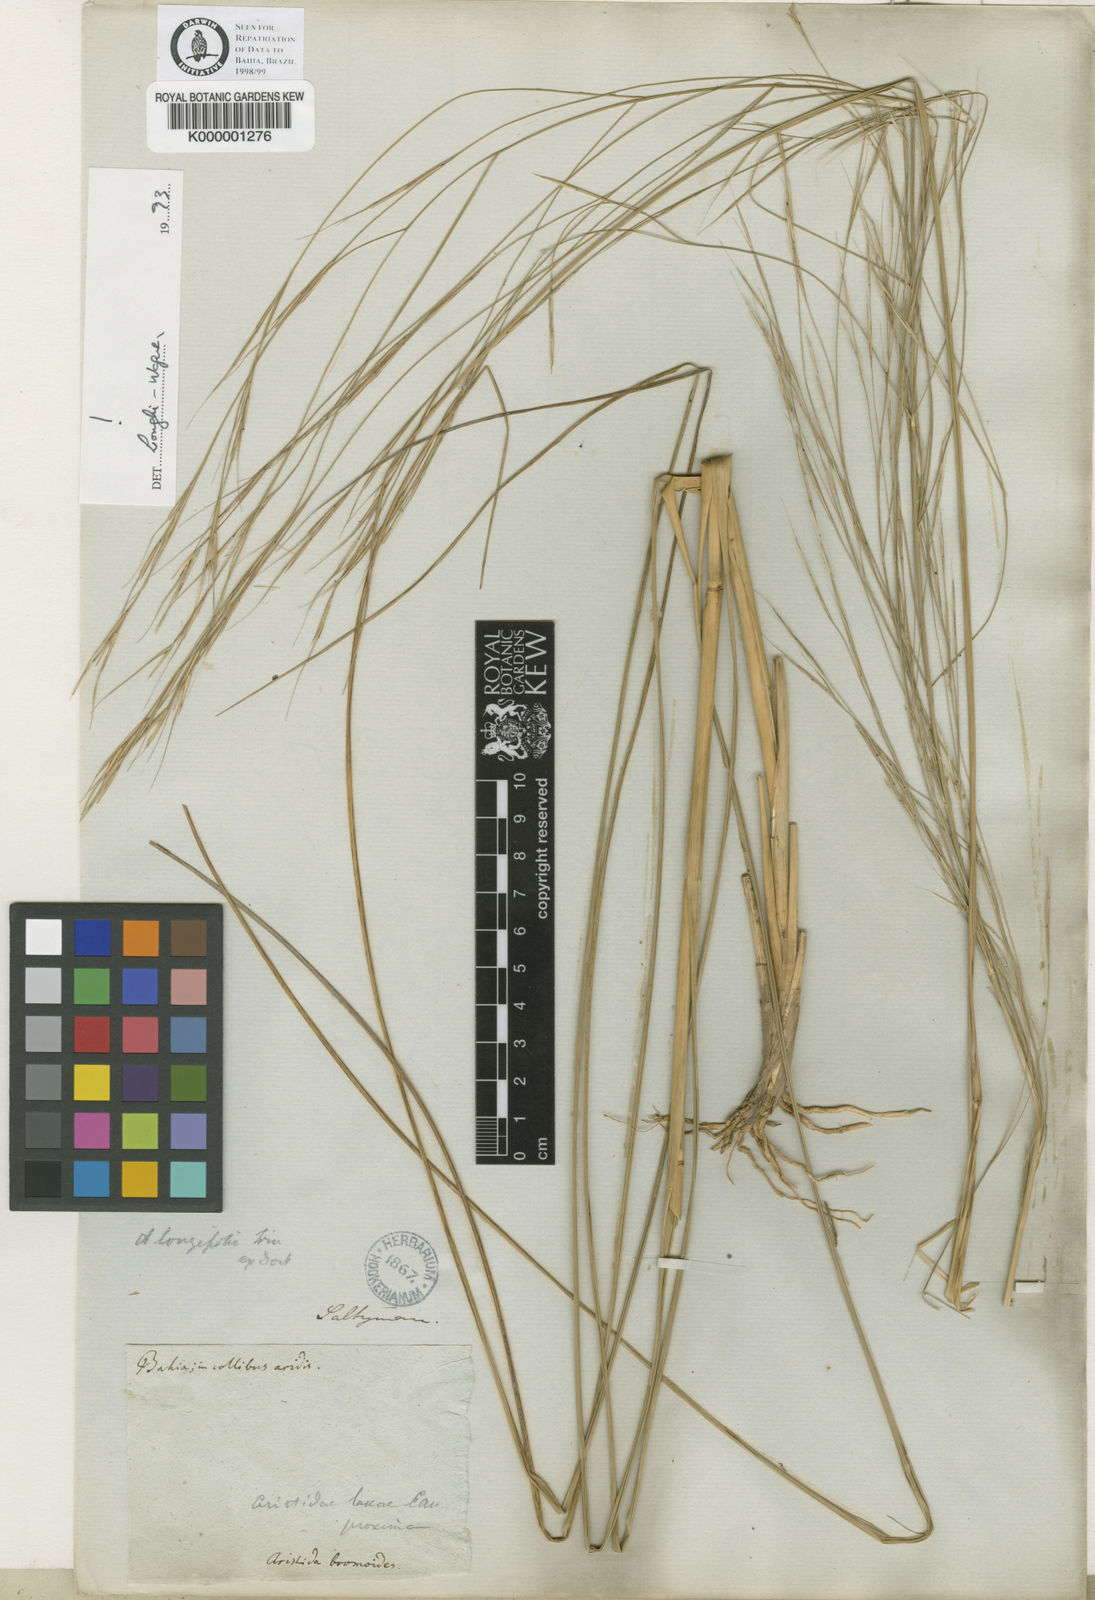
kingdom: Plantae
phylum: Tracheophyta
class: Liliopsida
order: Poales
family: Poaceae
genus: Aristida
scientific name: Aristida longifolia
